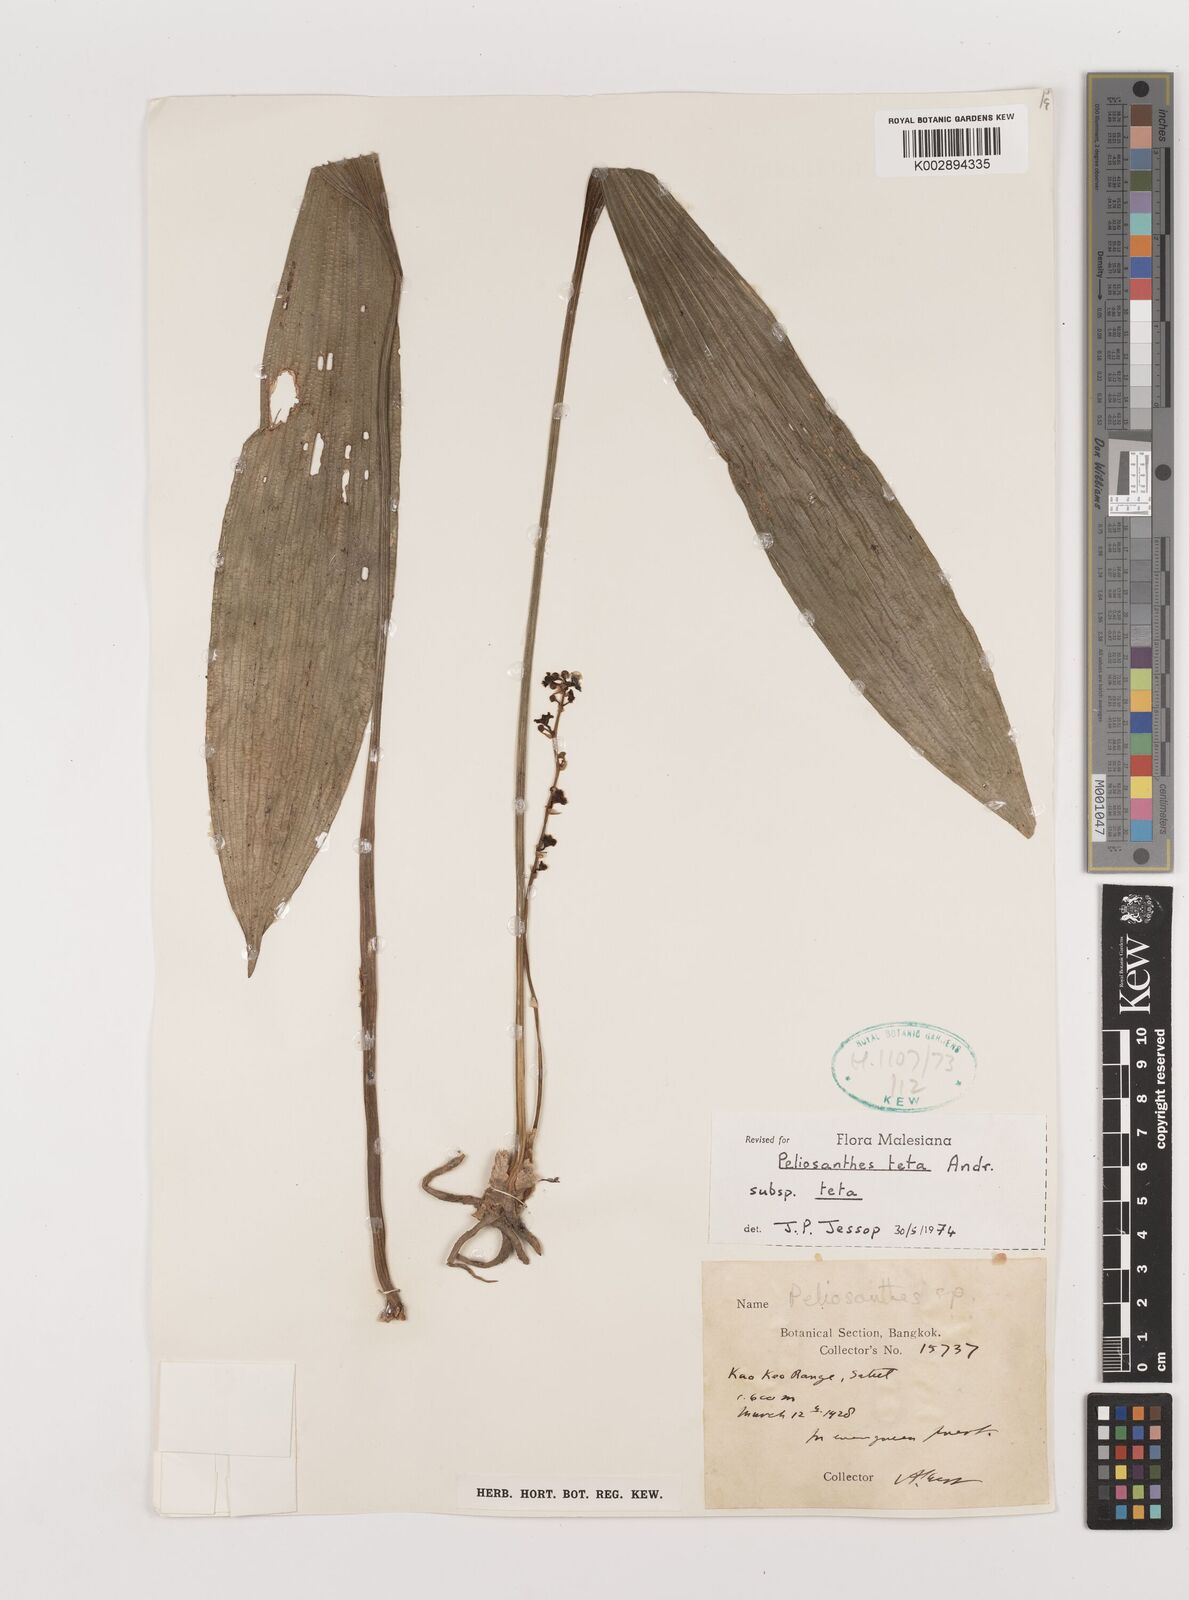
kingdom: Plantae
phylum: Tracheophyta
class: Liliopsida
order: Asparagales
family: Asparagaceae
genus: Peliosanthes
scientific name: Peliosanthes teta
